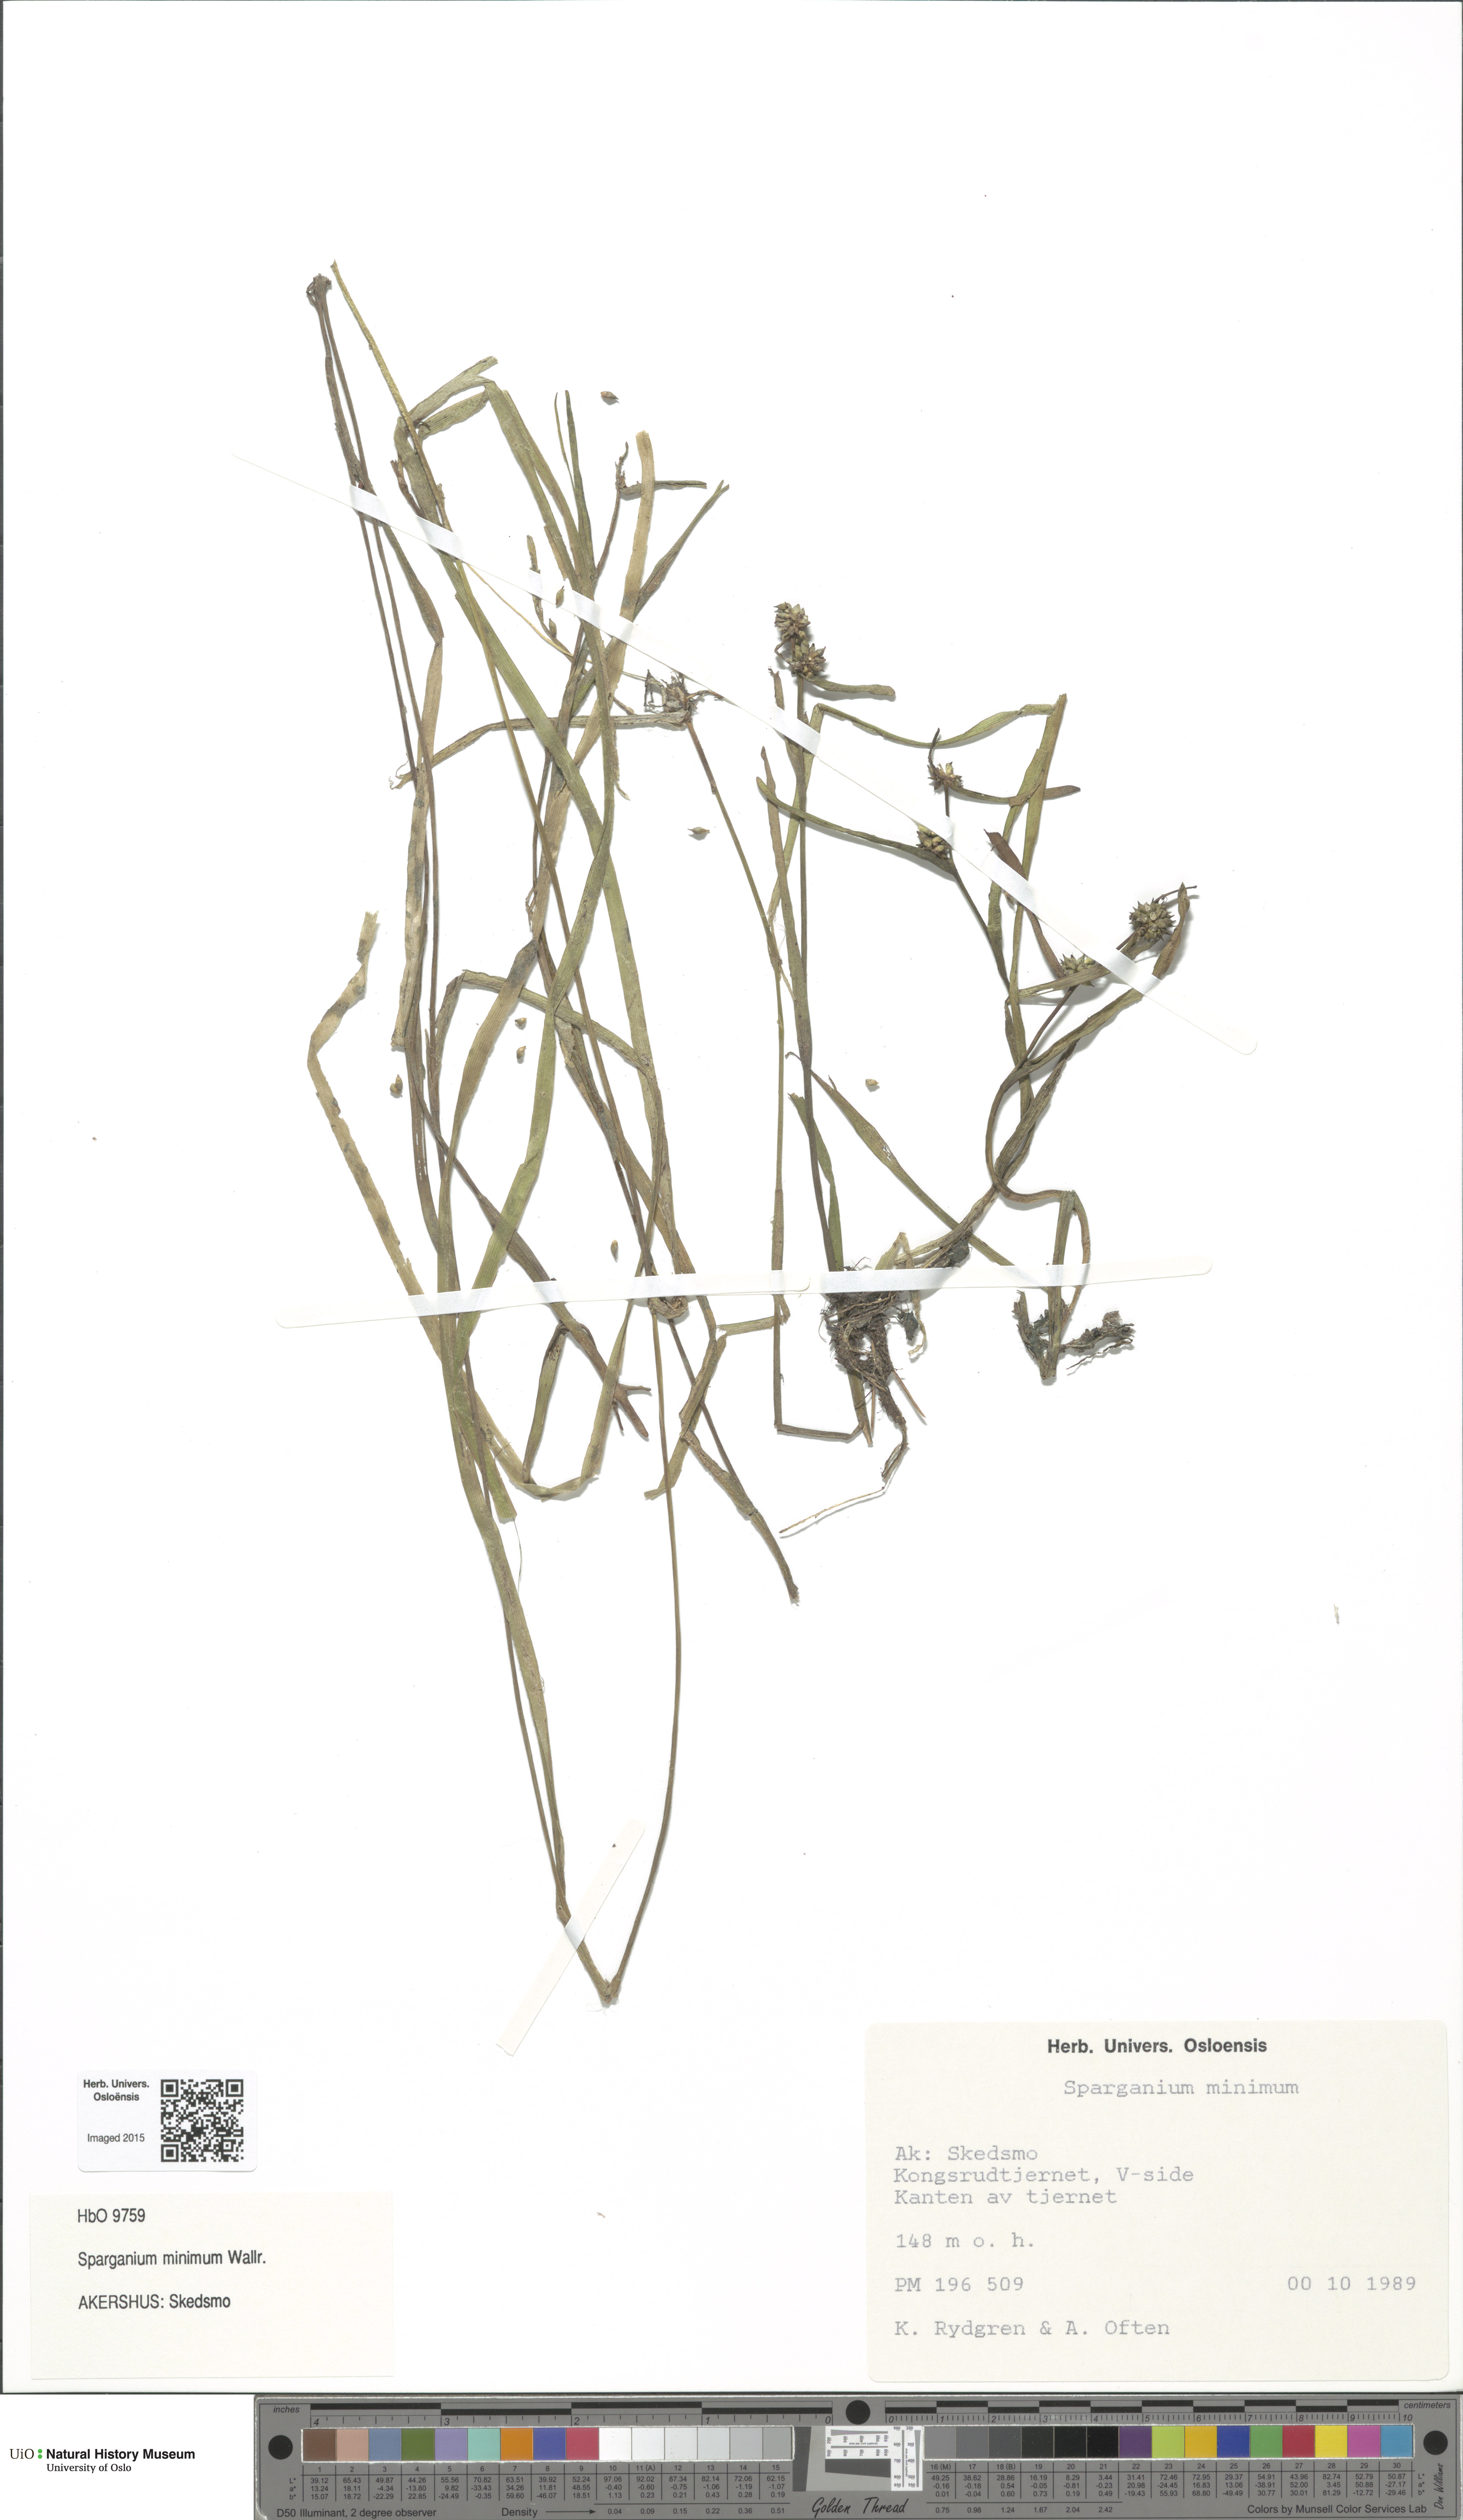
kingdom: Plantae
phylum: Tracheophyta
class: Liliopsida
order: Poales
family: Typhaceae
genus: Sparganium
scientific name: Sparganium natans
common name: Least bur-reed
